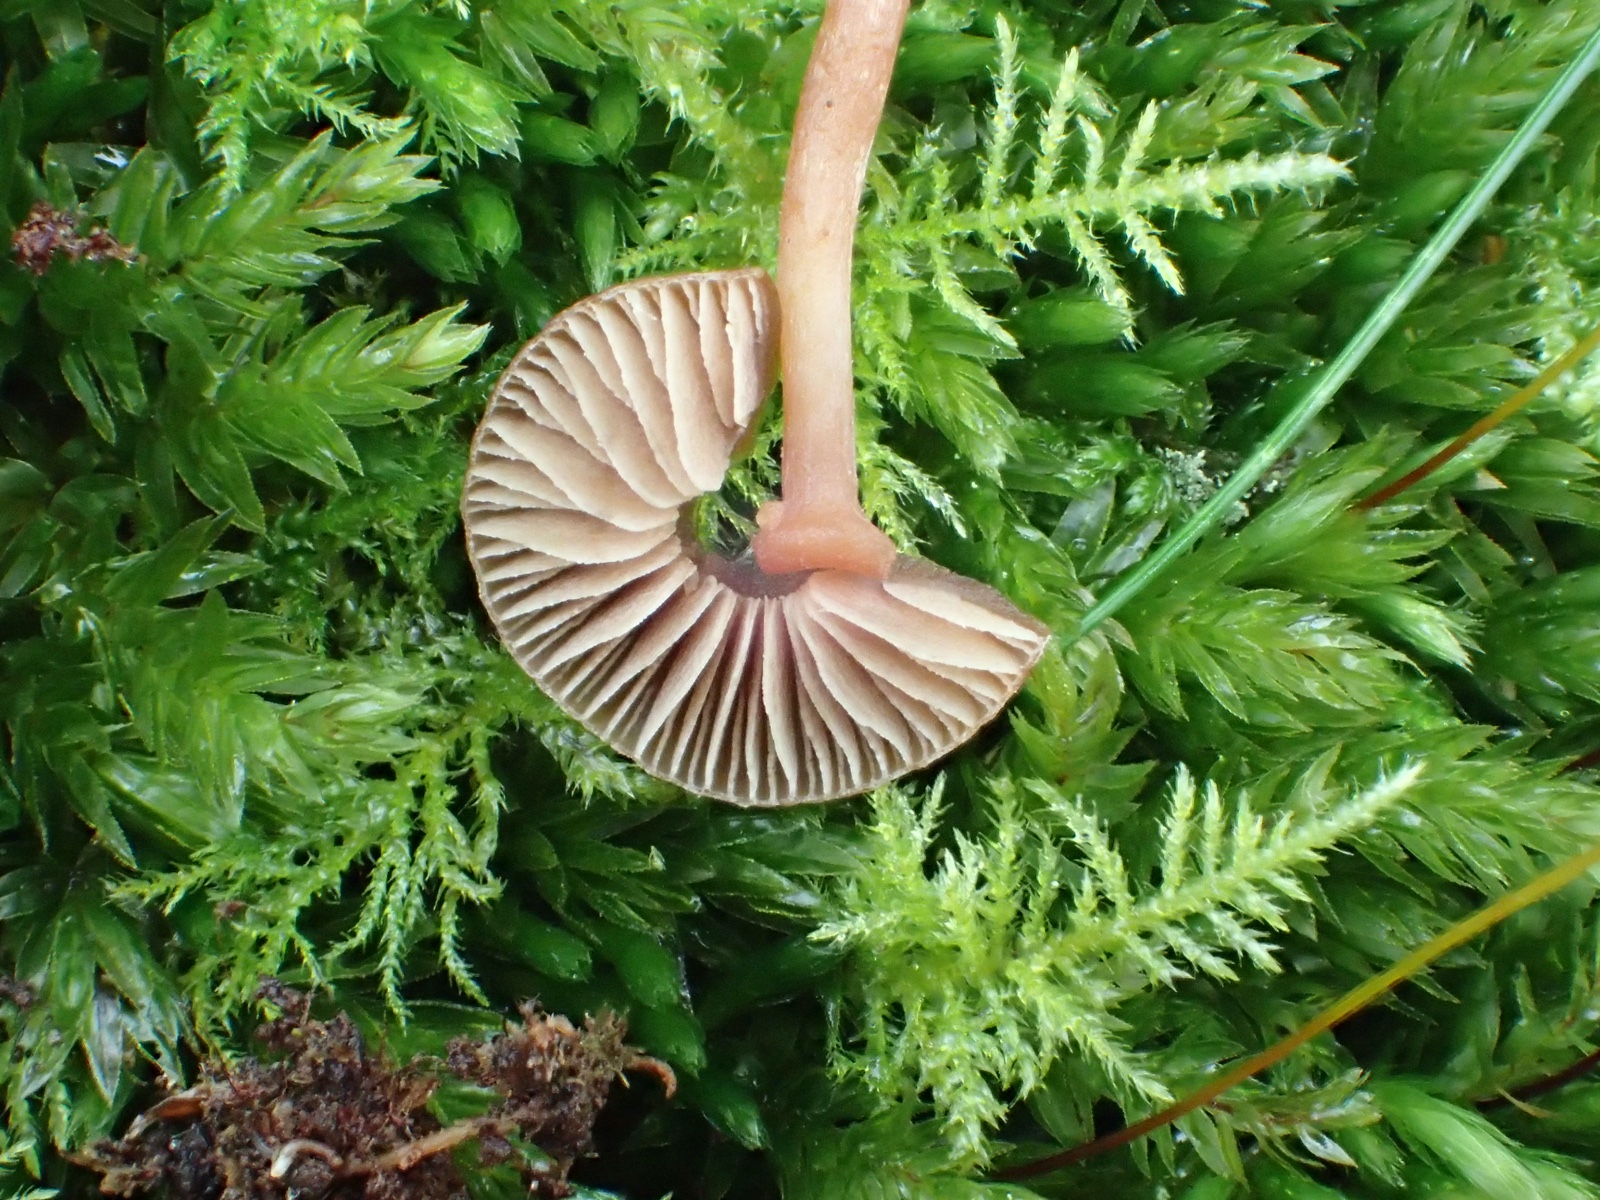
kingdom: Fungi
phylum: Basidiomycota
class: Agaricomycetes
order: Agaricales
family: Tubariaceae
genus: Tubaria
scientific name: Tubaria furfuracea
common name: kliddet fnughat
